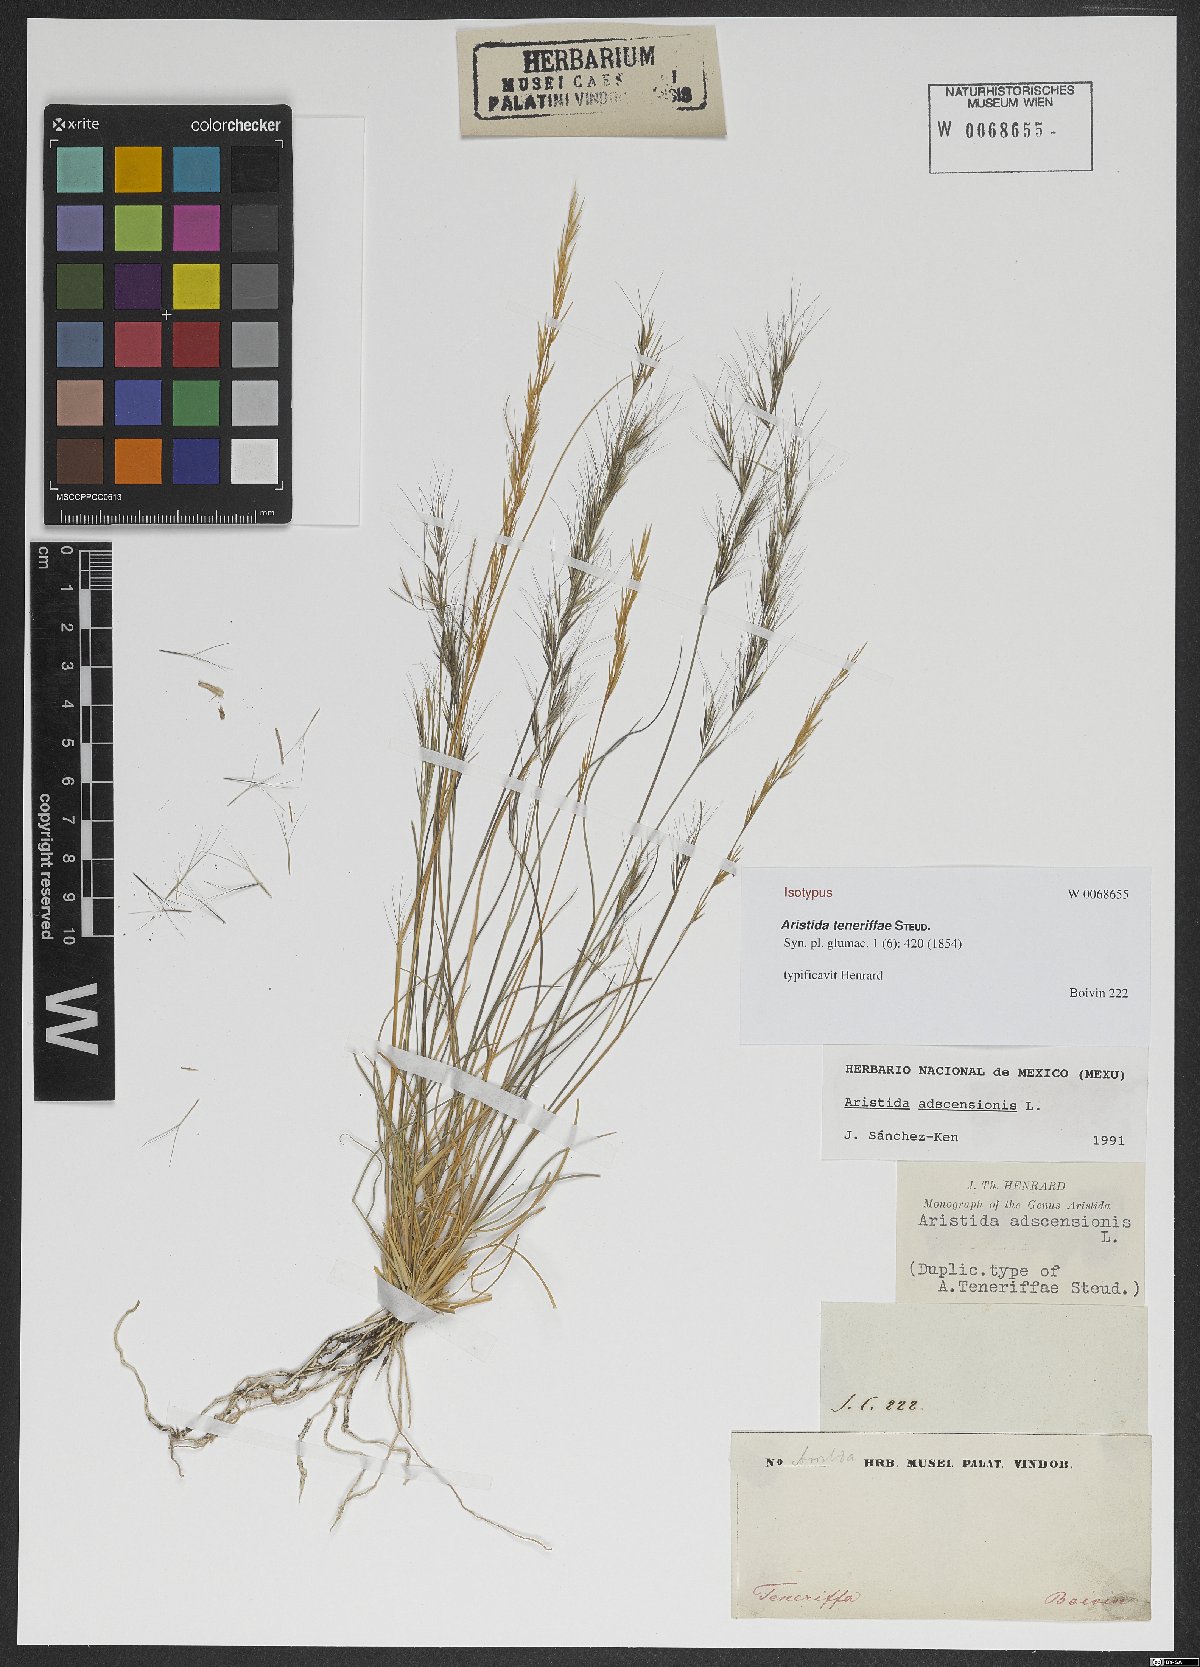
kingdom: Plantae
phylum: Tracheophyta
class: Liliopsida
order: Poales
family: Poaceae
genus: Aristida
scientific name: Aristida adscensionis
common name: Sixweeks threeawn
